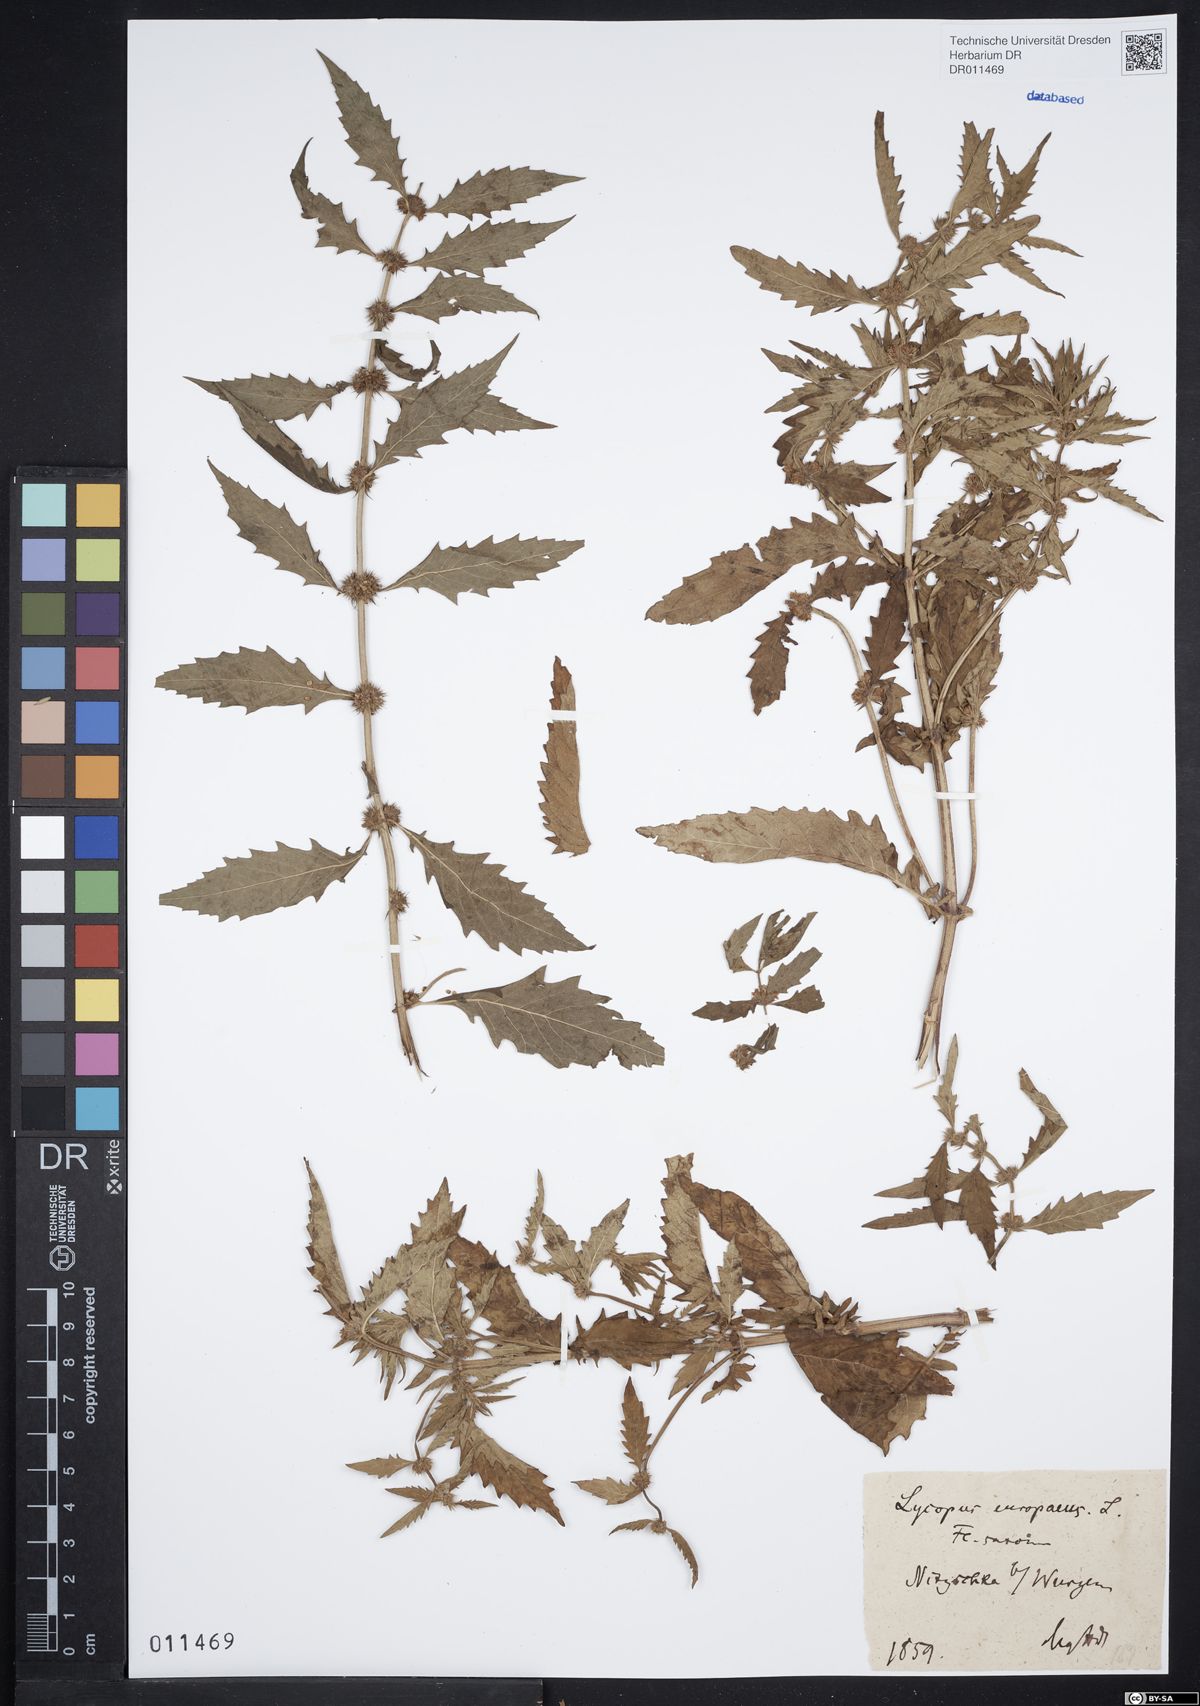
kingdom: Plantae
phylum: Tracheophyta
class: Magnoliopsida
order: Lamiales
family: Lamiaceae
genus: Lycopus
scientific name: Lycopus europaeus
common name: European bugleweed
